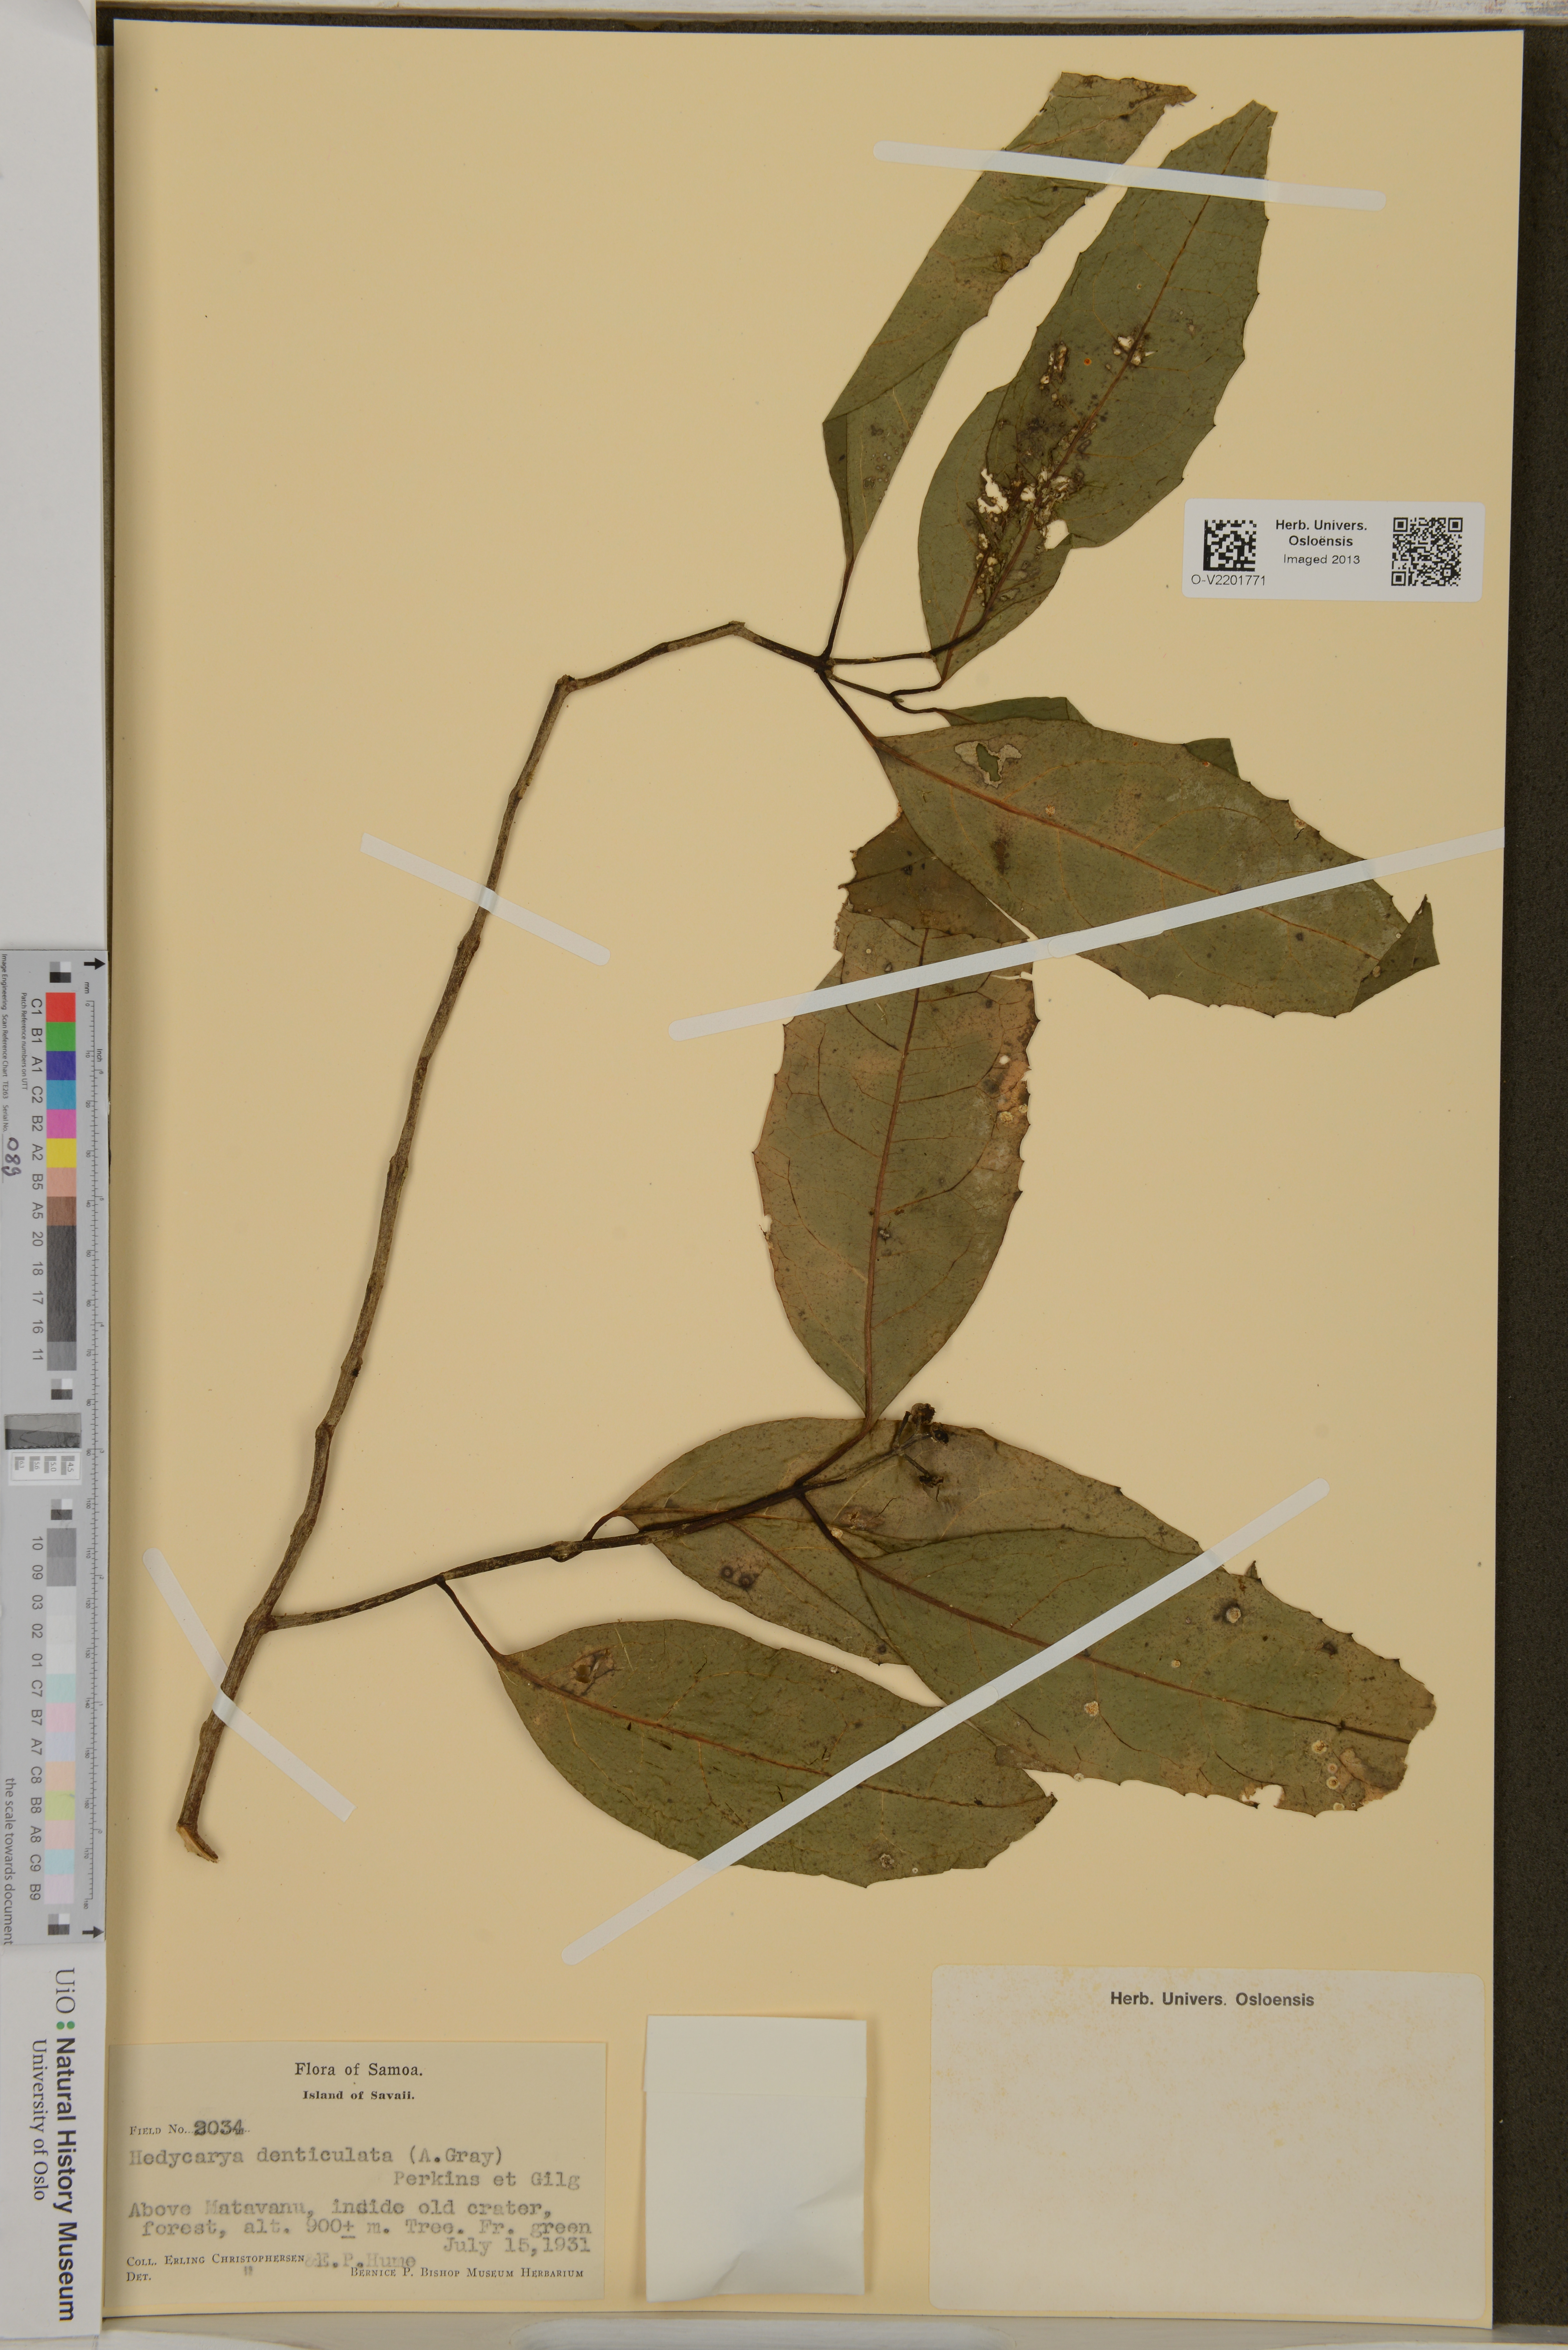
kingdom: Plantae
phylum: Tracheophyta
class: Magnoliopsida
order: Laurales
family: Monimiaceae
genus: Hedycarya
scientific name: Hedycarya denticulata
